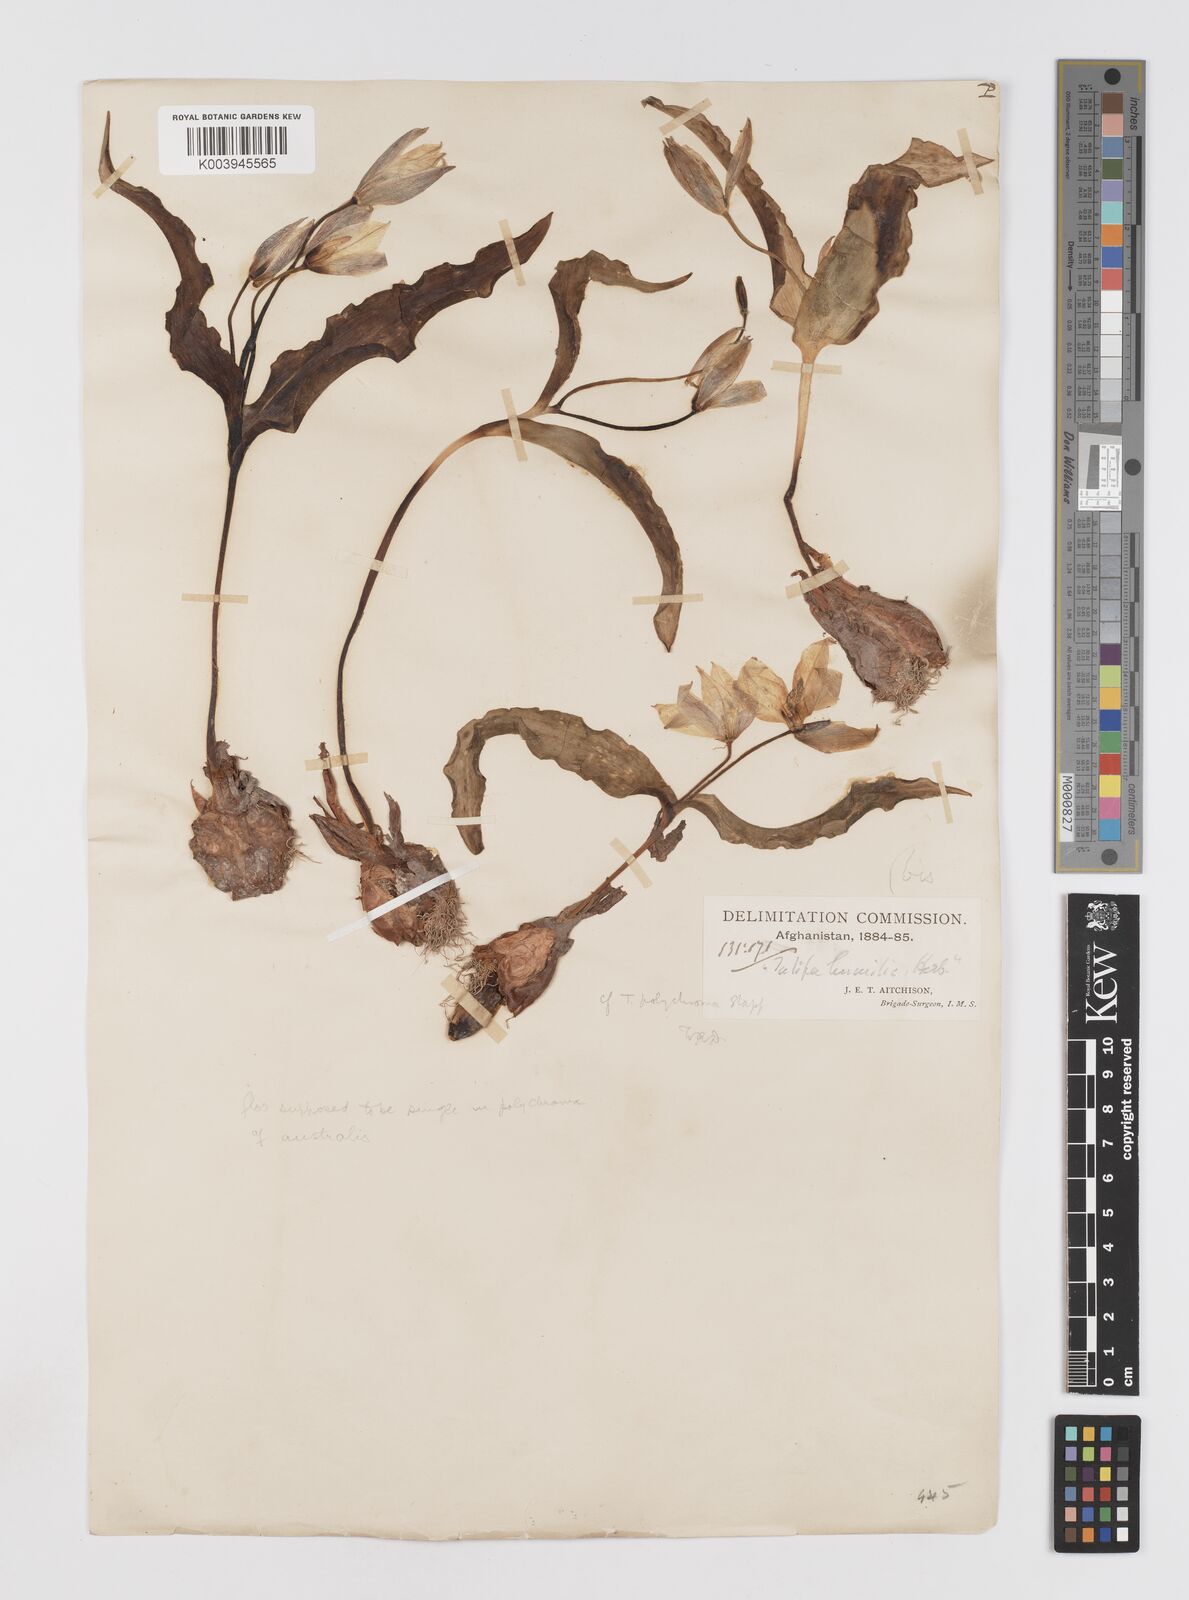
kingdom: Plantae
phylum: Tracheophyta
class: Liliopsida
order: Liliales
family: Liliaceae
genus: Tulipa
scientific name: Tulipa biflora
